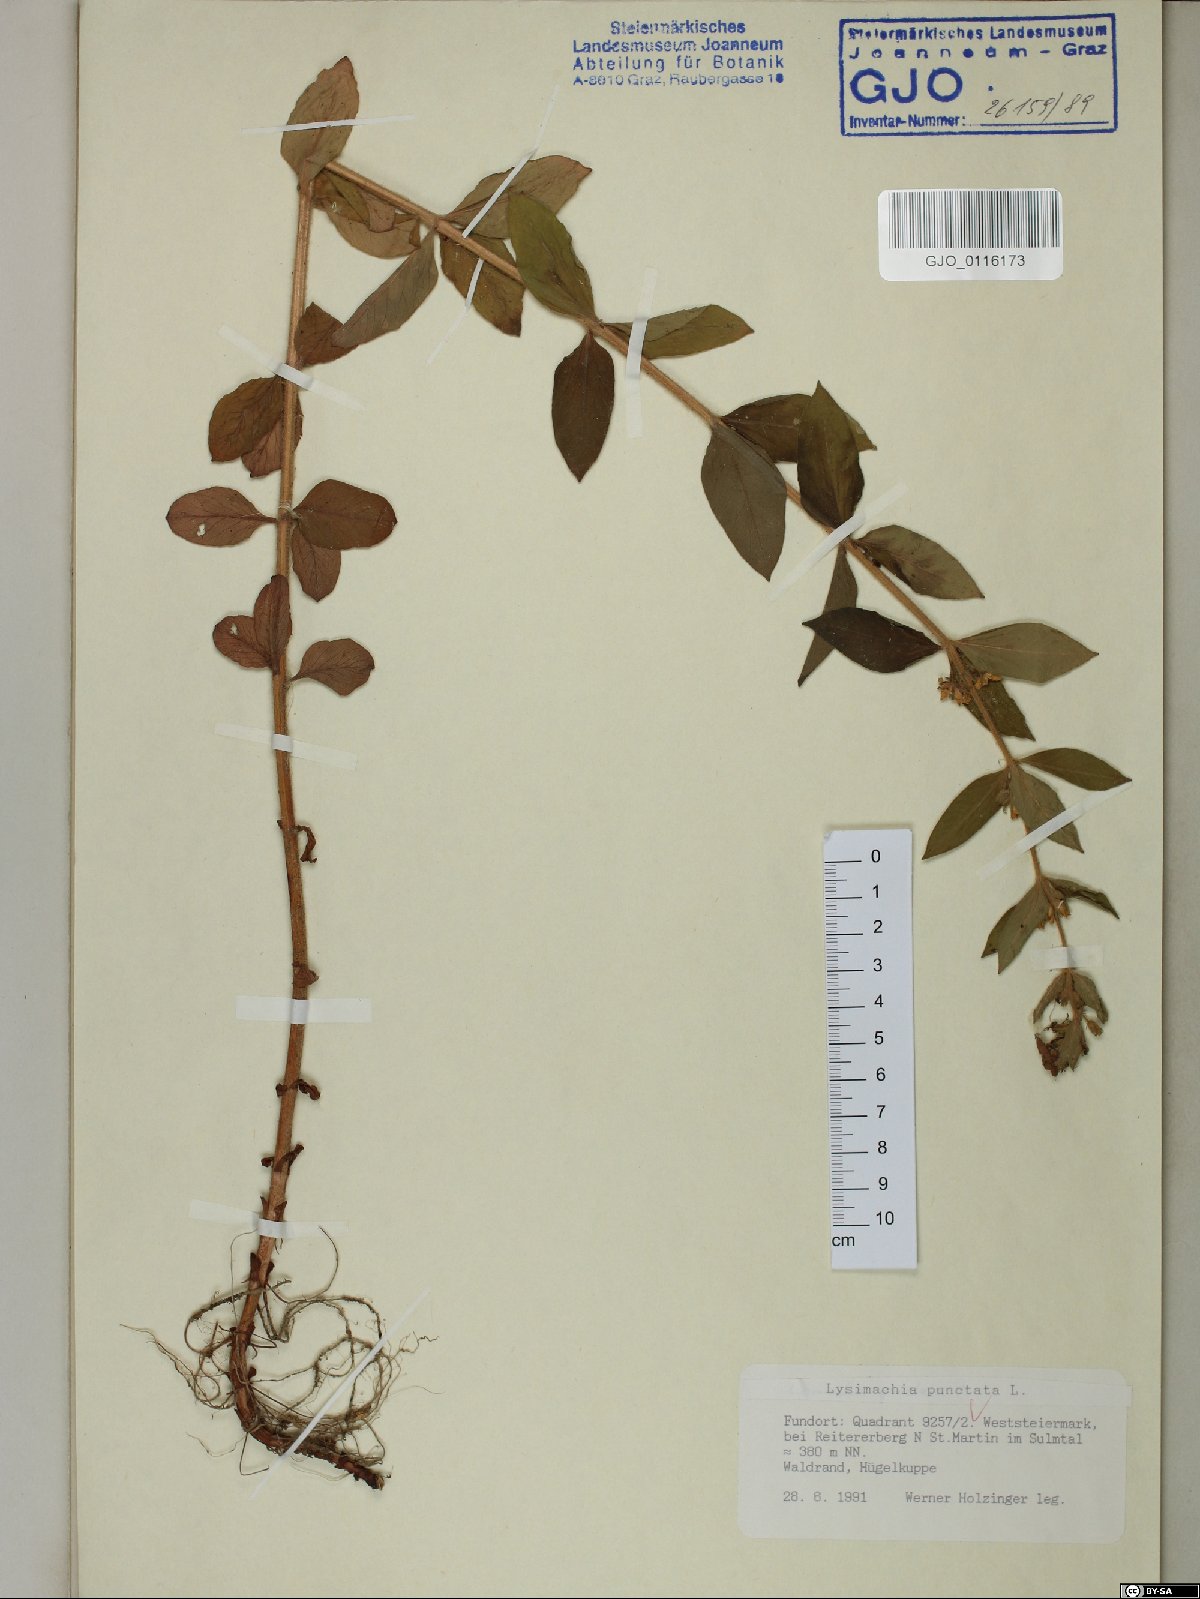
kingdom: Plantae
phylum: Tracheophyta
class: Magnoliopsida
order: Ericales
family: Primulaceae
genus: Lysimachia
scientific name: Lysimachia punctata
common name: Dotted loosestrife
